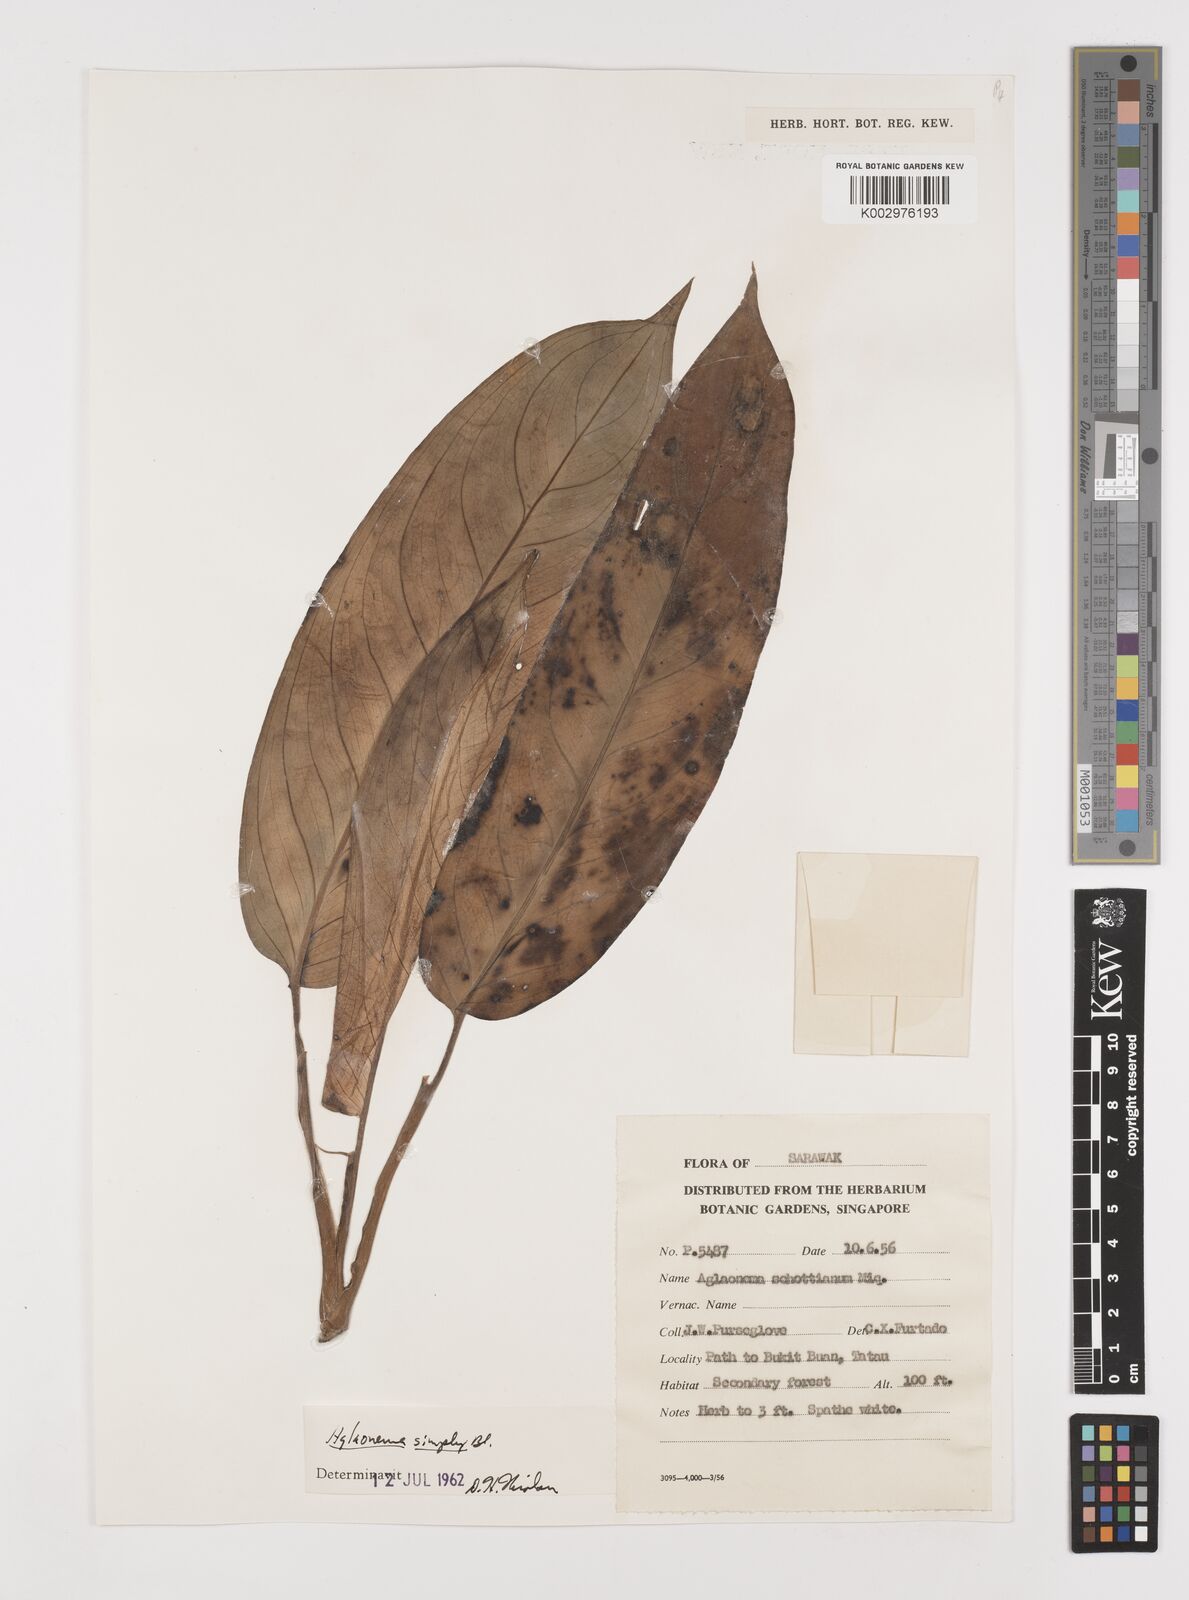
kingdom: Plantae
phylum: Tracheophyta
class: Liliopsida
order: Alismatales
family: Araceae
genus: Aglaonema
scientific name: Aglaonema simplex
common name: Malayan-sword
